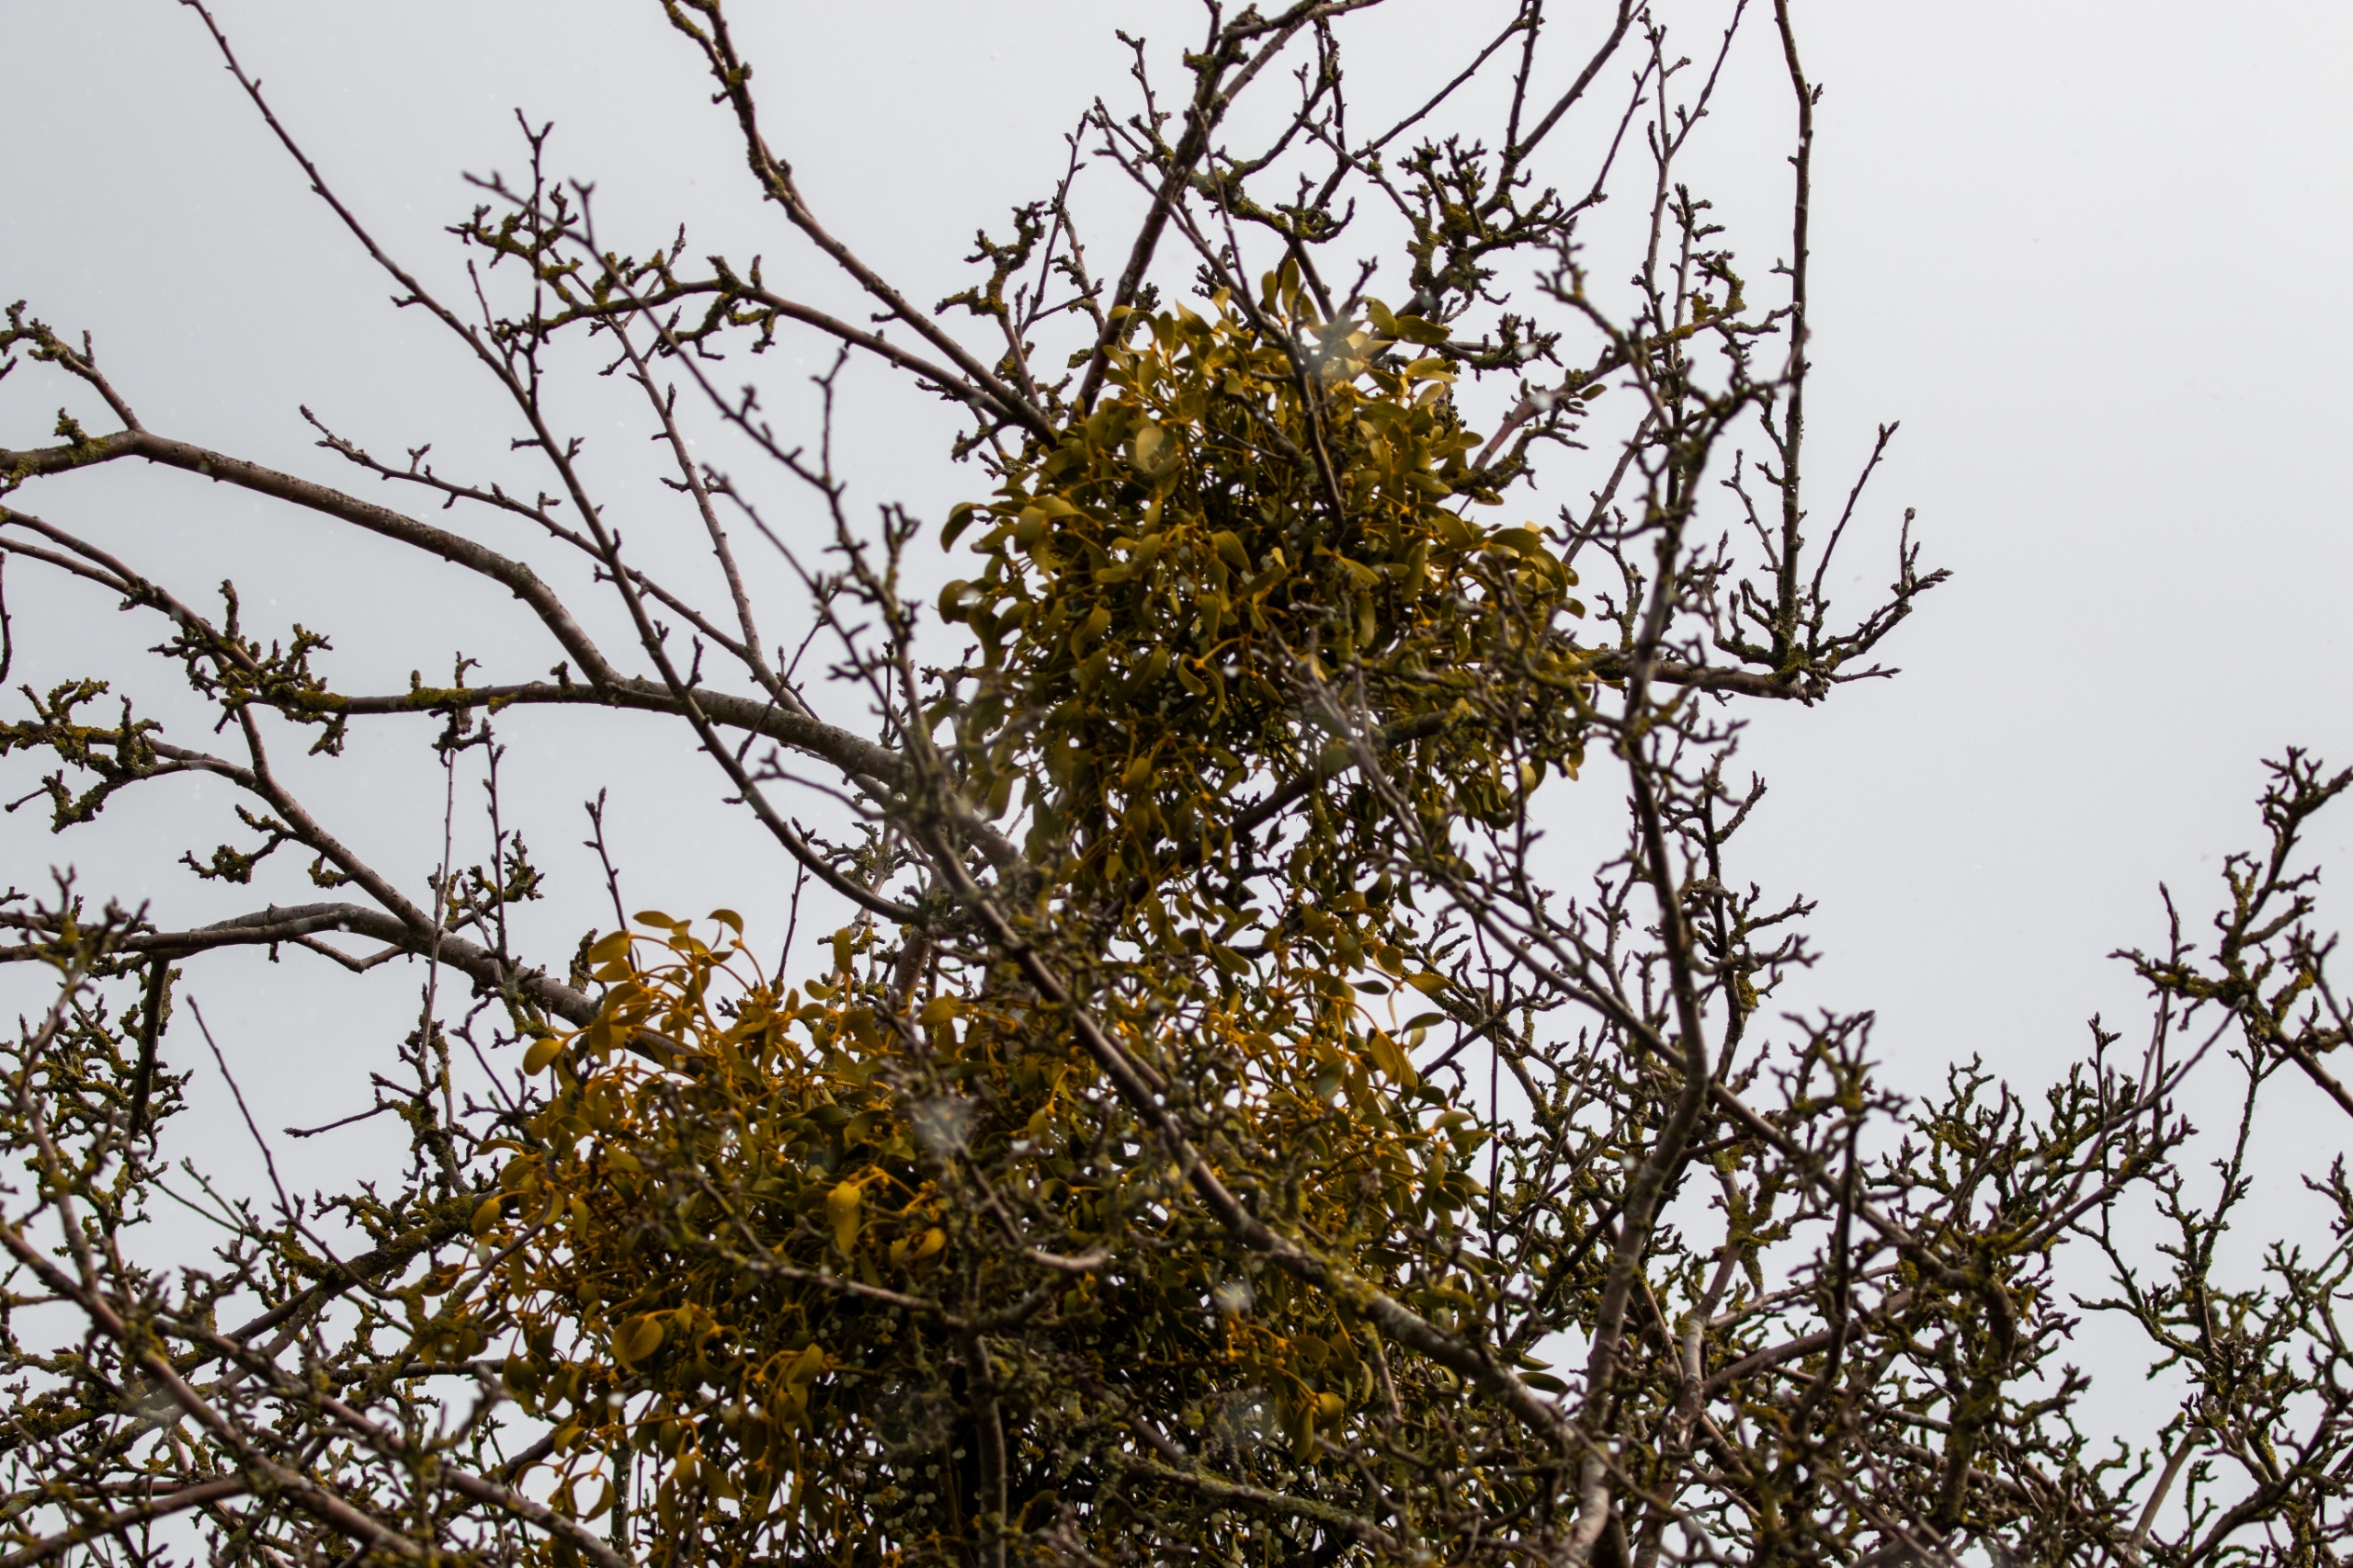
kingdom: Plantae
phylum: Tracheophyta
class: Magnoliopsida
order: Santalales
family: Viscaceae
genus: Viscum
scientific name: Viscum album
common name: Mistelten
